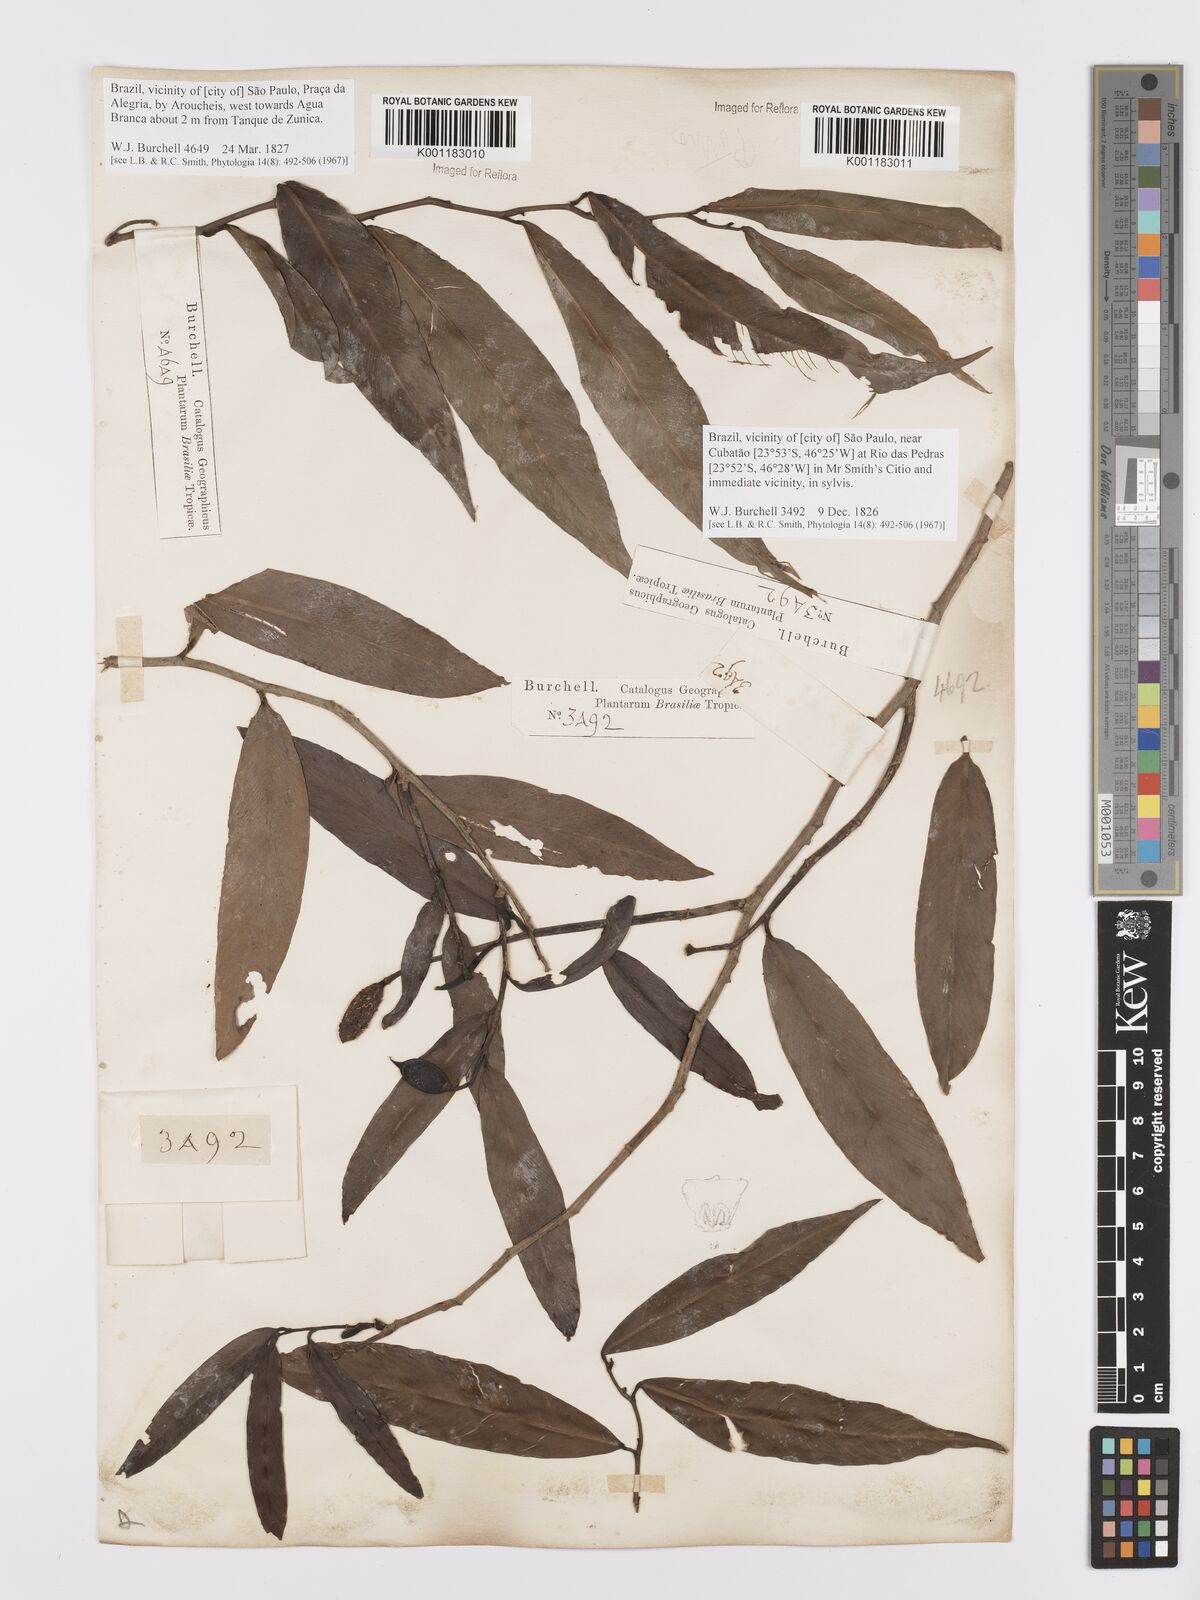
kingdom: Plantae
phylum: Tracheophyta
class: Liliopsida
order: Alismatales
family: Araceae
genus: Heteropsis
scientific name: Heteropsis salicifolia
